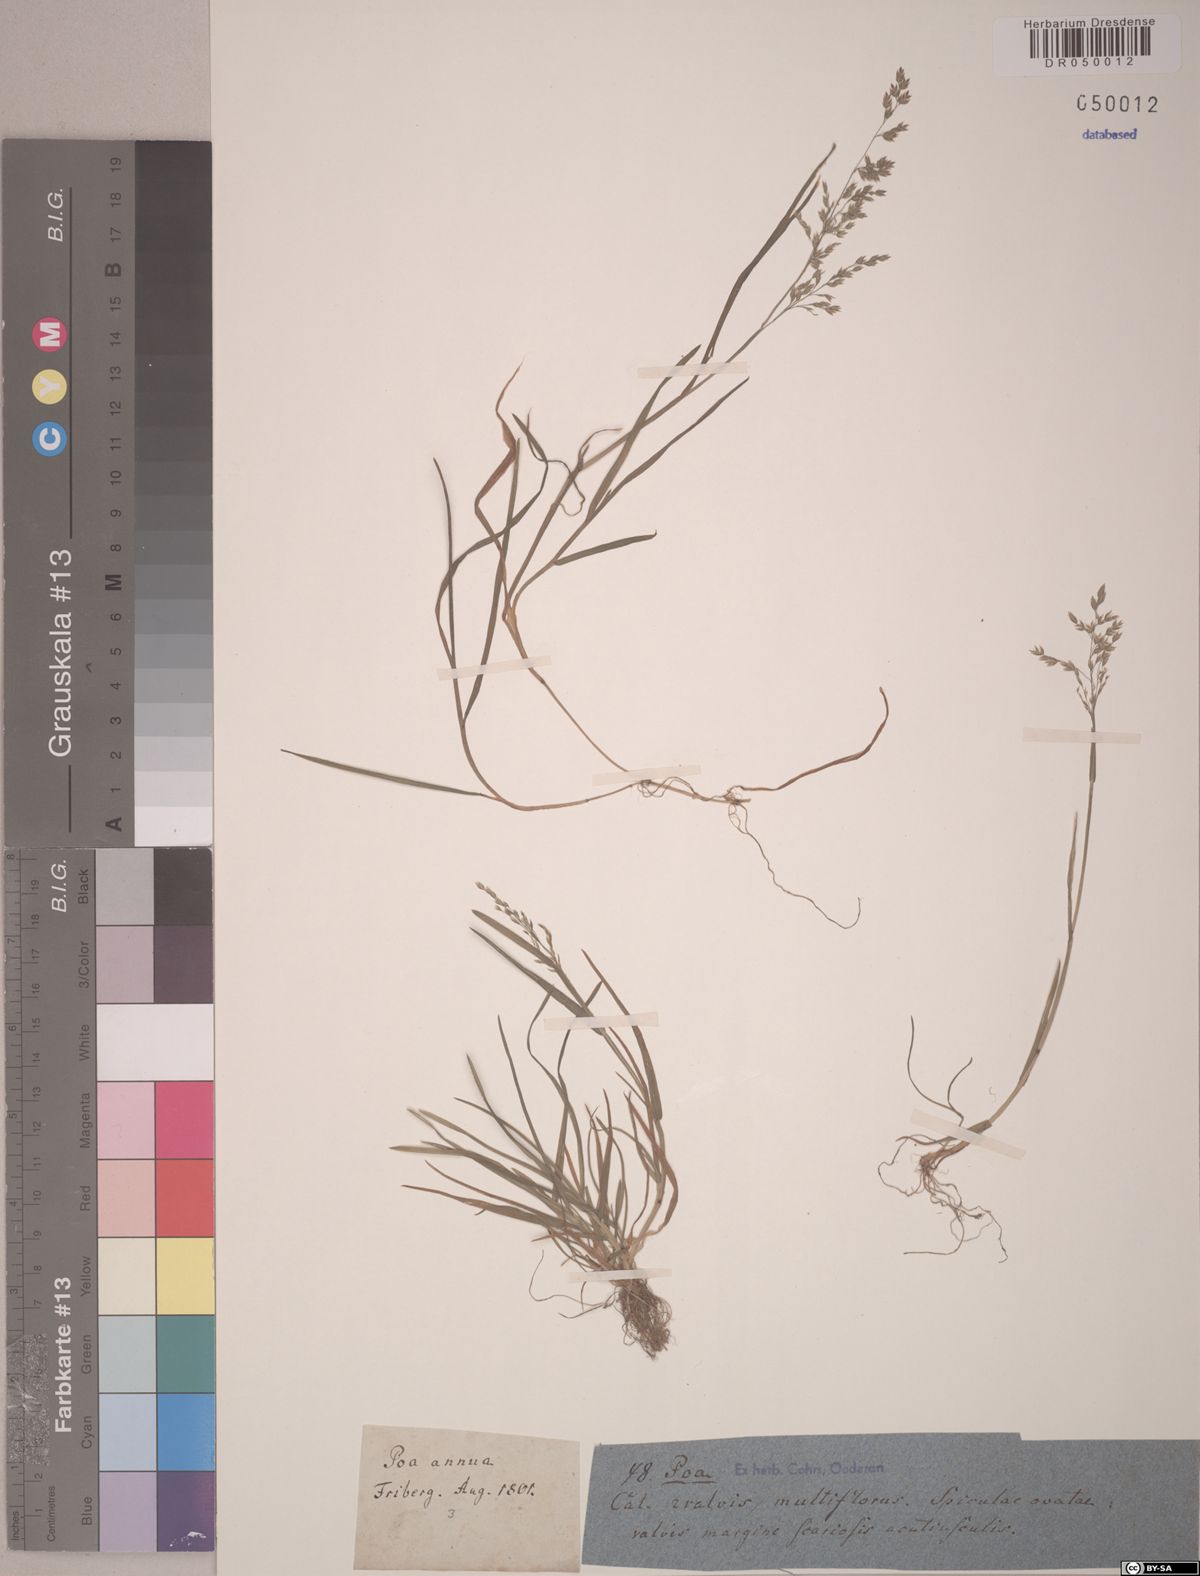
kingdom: Plantae
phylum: Tracheophyta
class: Liliopsida
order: Poales
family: Poaceae
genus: Poa
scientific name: Poa annua
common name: Annual bluegrass
